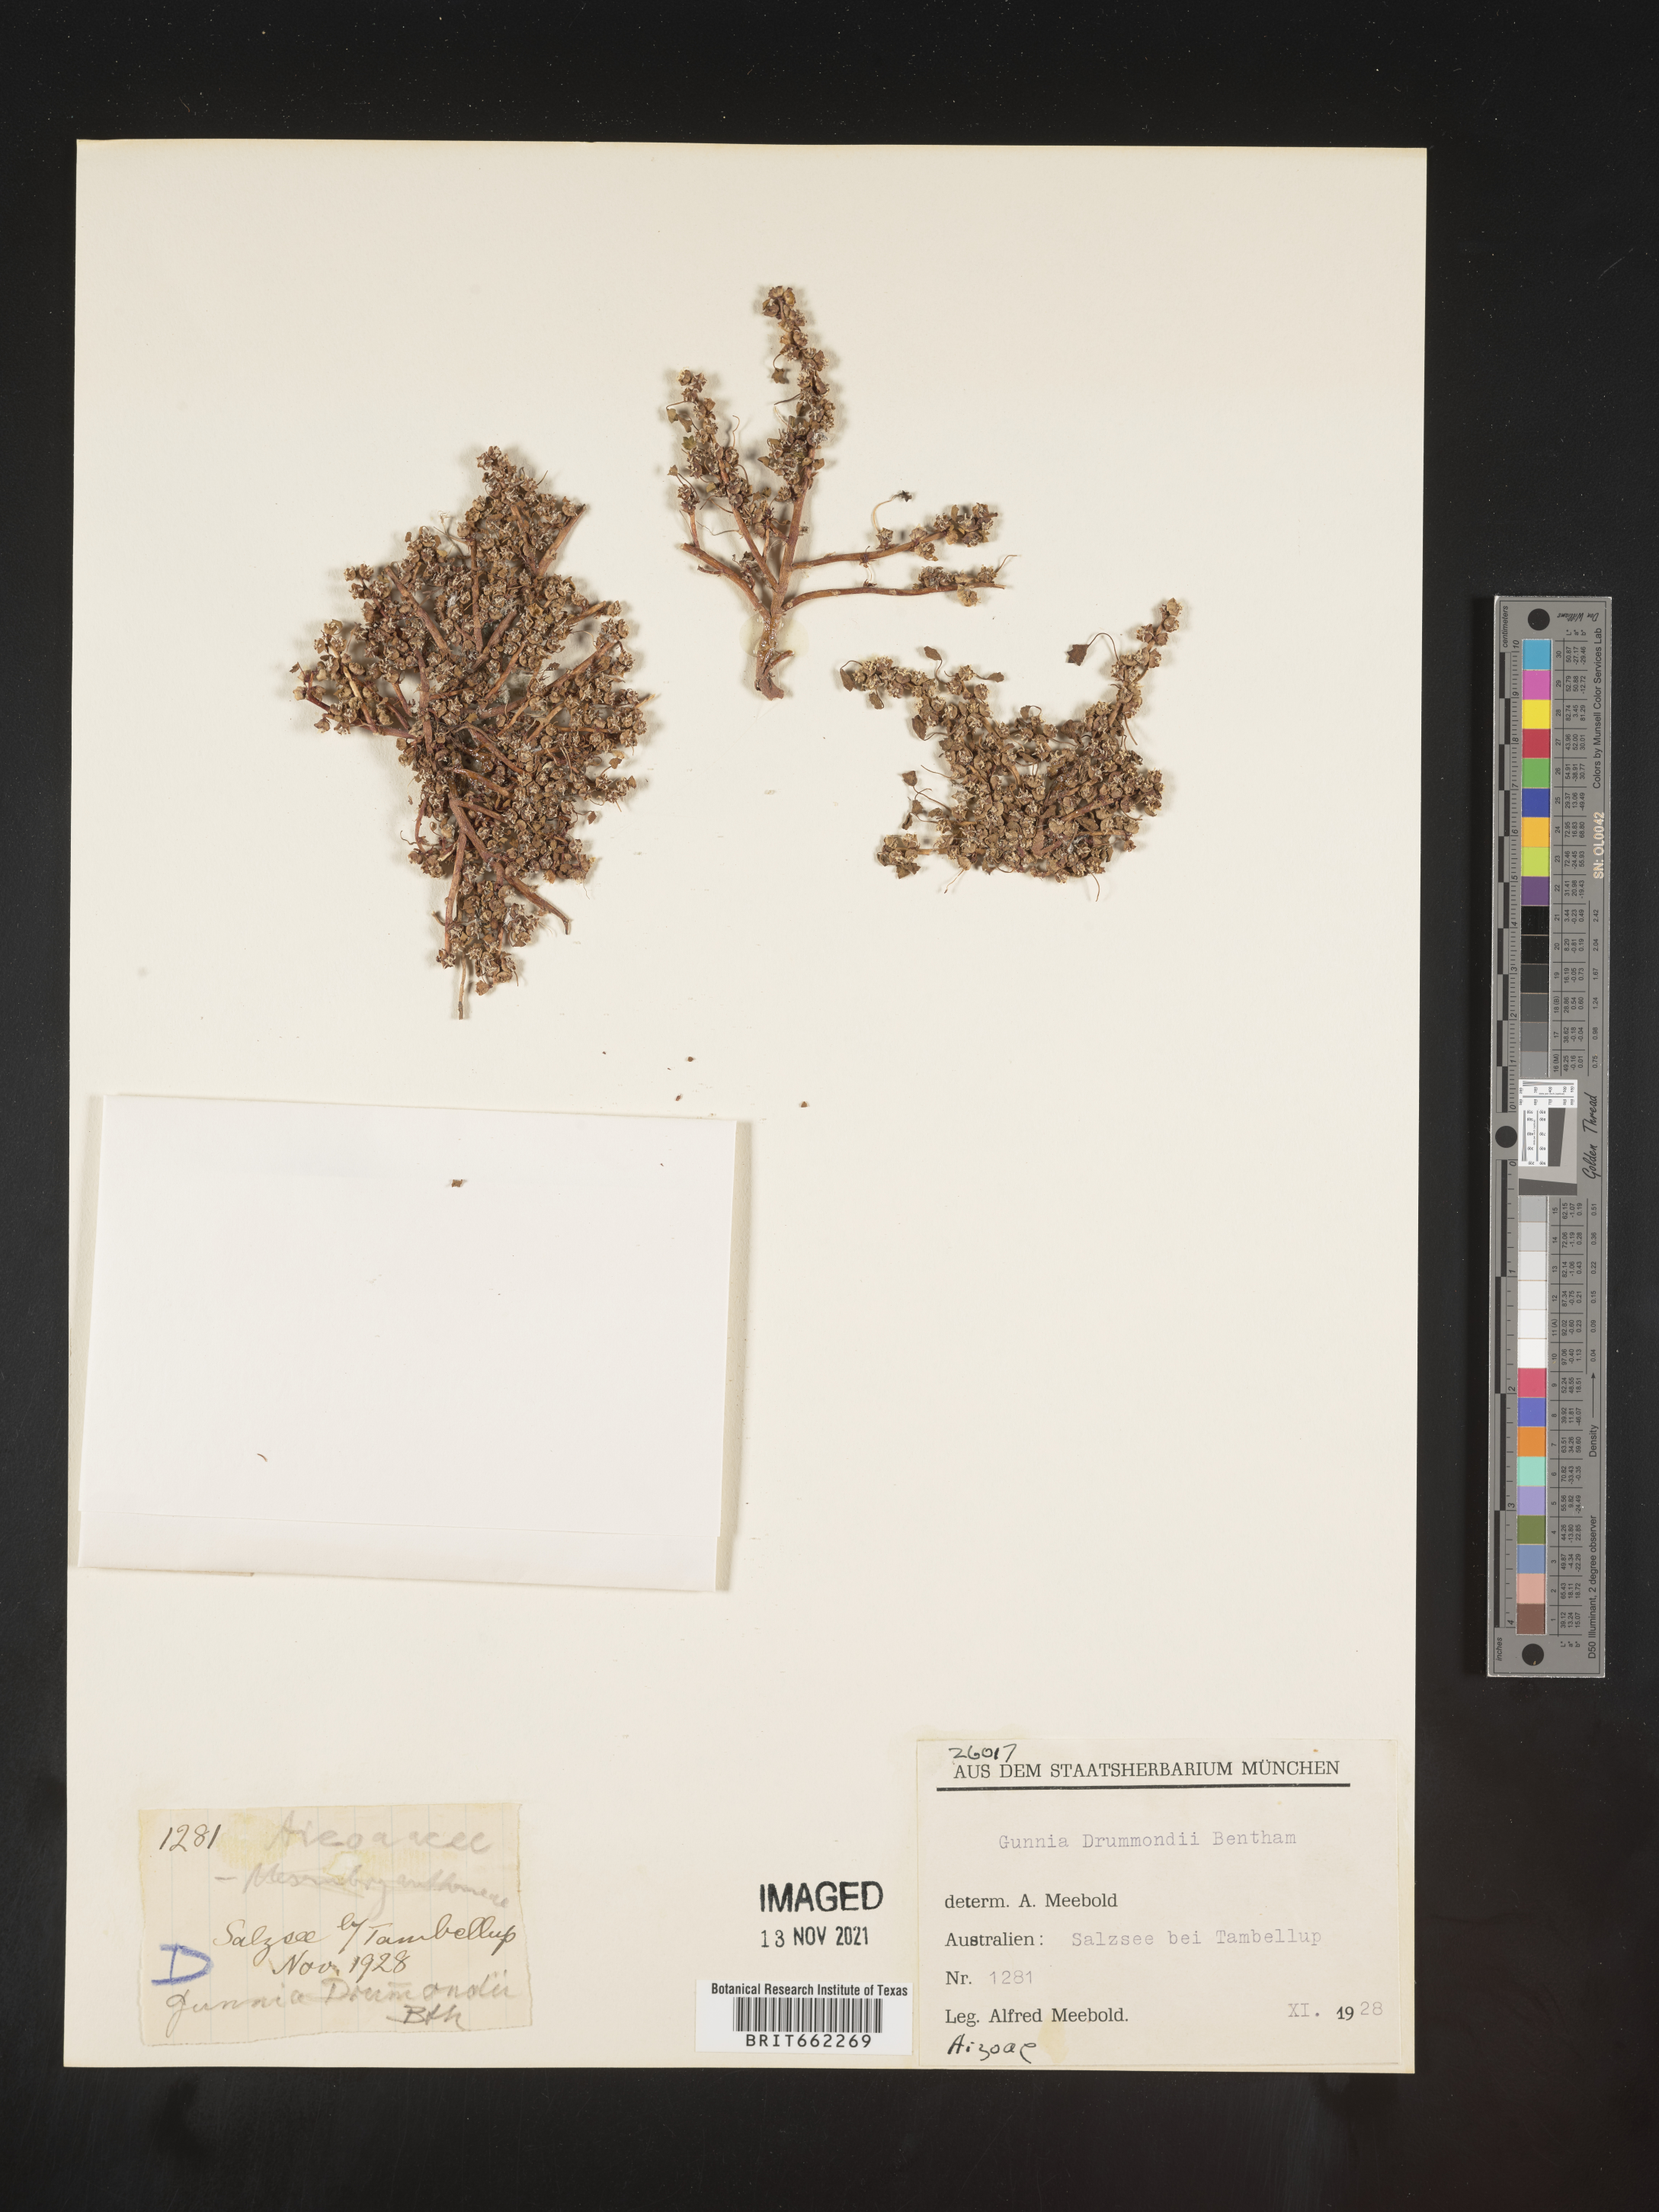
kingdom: Animalia
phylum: Arthropoda
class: Trilobita
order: Ptychopariida
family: Ptychopariidae
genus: Gunnia
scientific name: Gunnia
